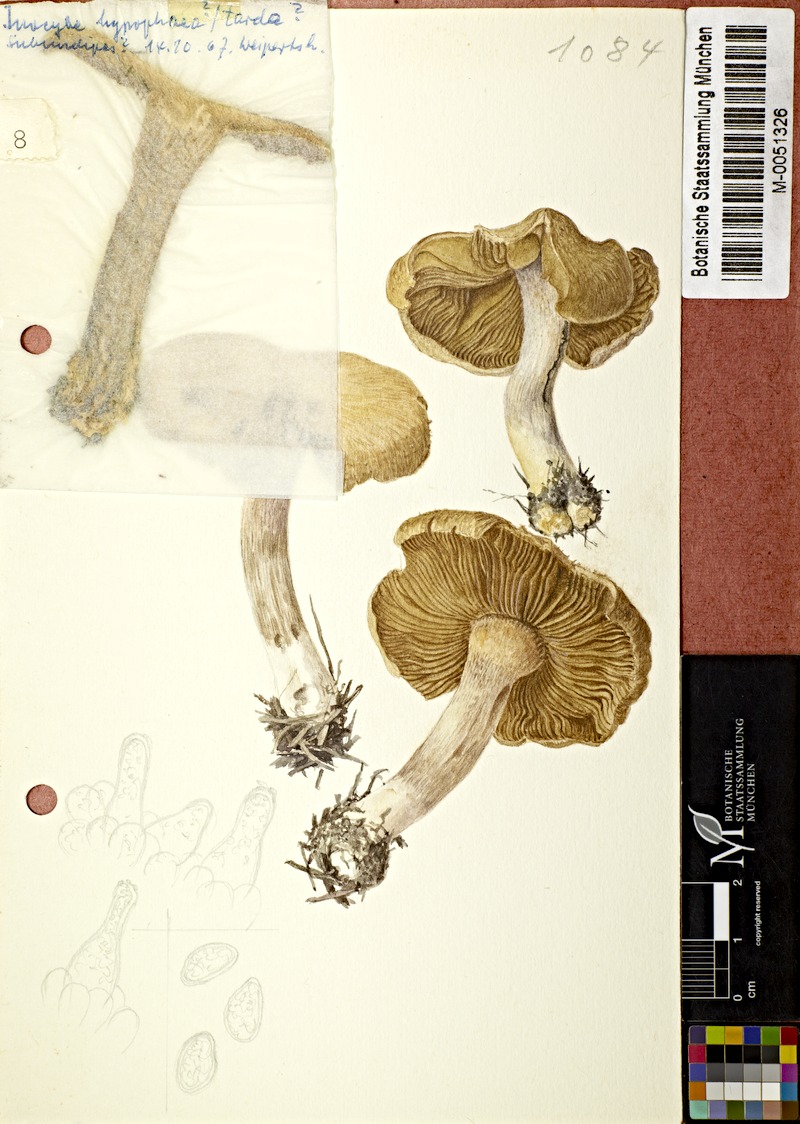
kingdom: Fungi
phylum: Basidiomycota
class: Agaricomycetes
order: Agaricales
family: Inocybaceae
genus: Inocybe
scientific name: Inocybe fuscidula
